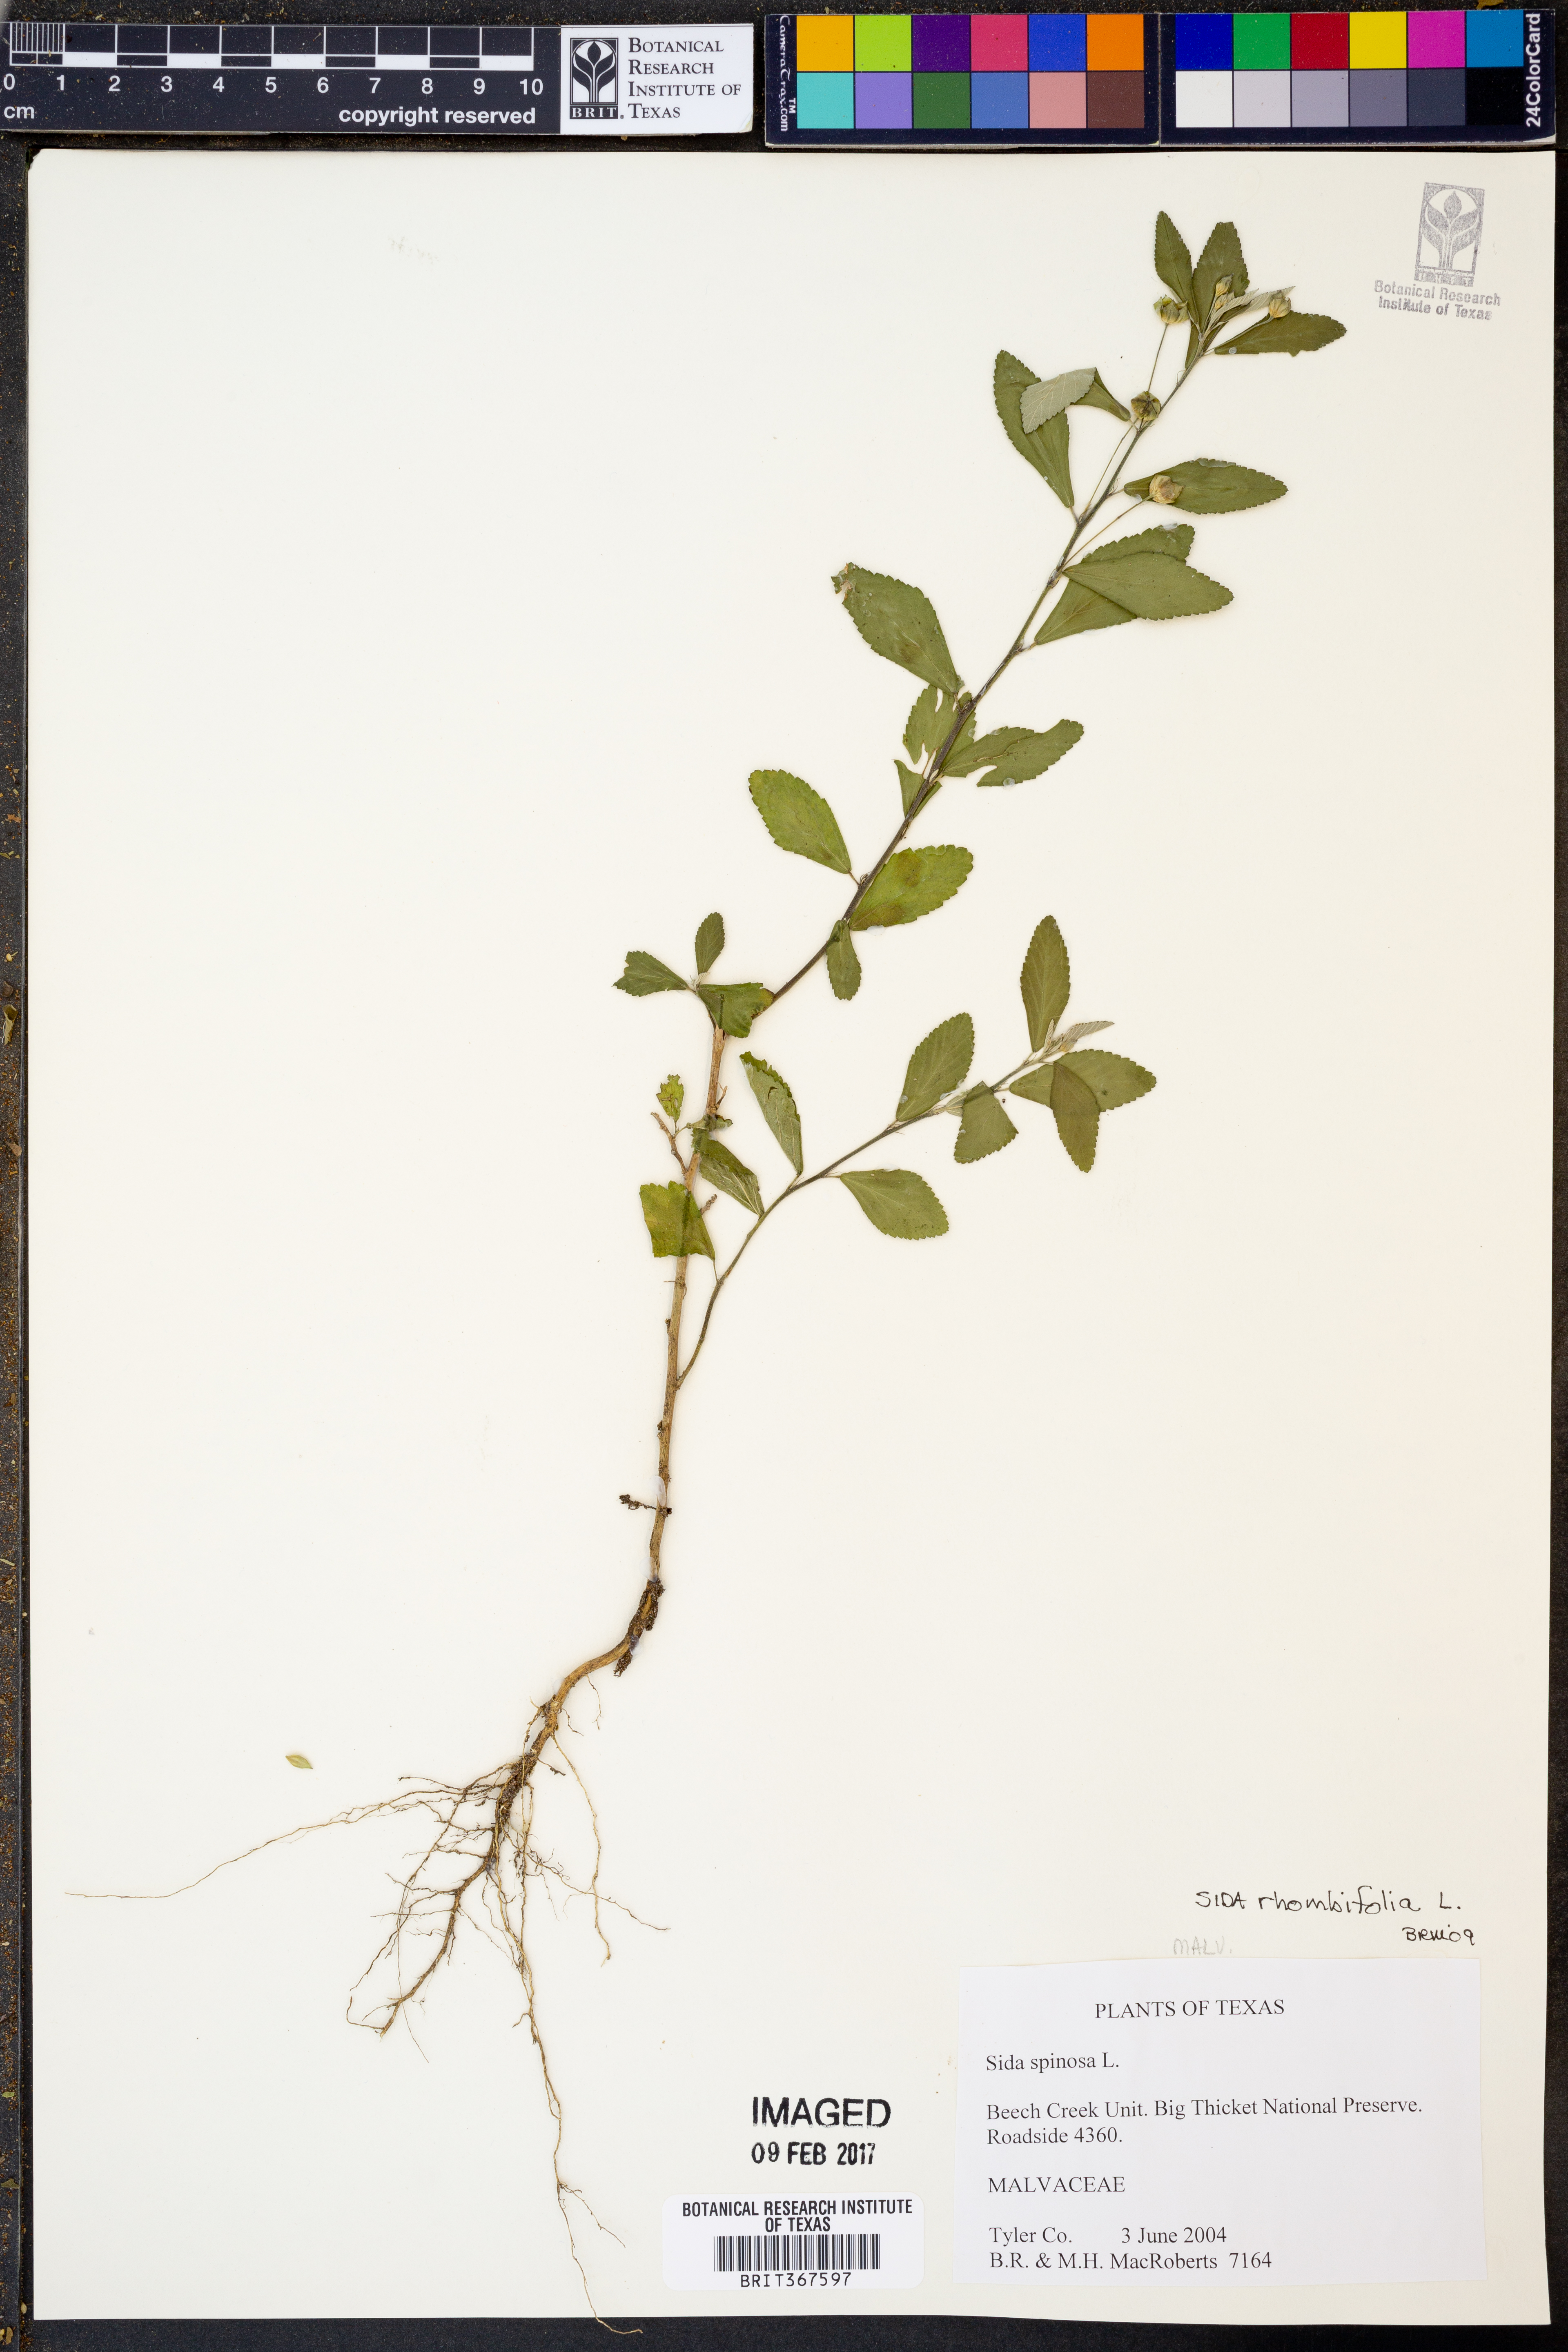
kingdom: Plantae
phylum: Tracheophyta
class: Magnoliopsida
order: Malvales
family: Malvaceae
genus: Sida
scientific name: Sida rhombifolia
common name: Queensland-hemp
